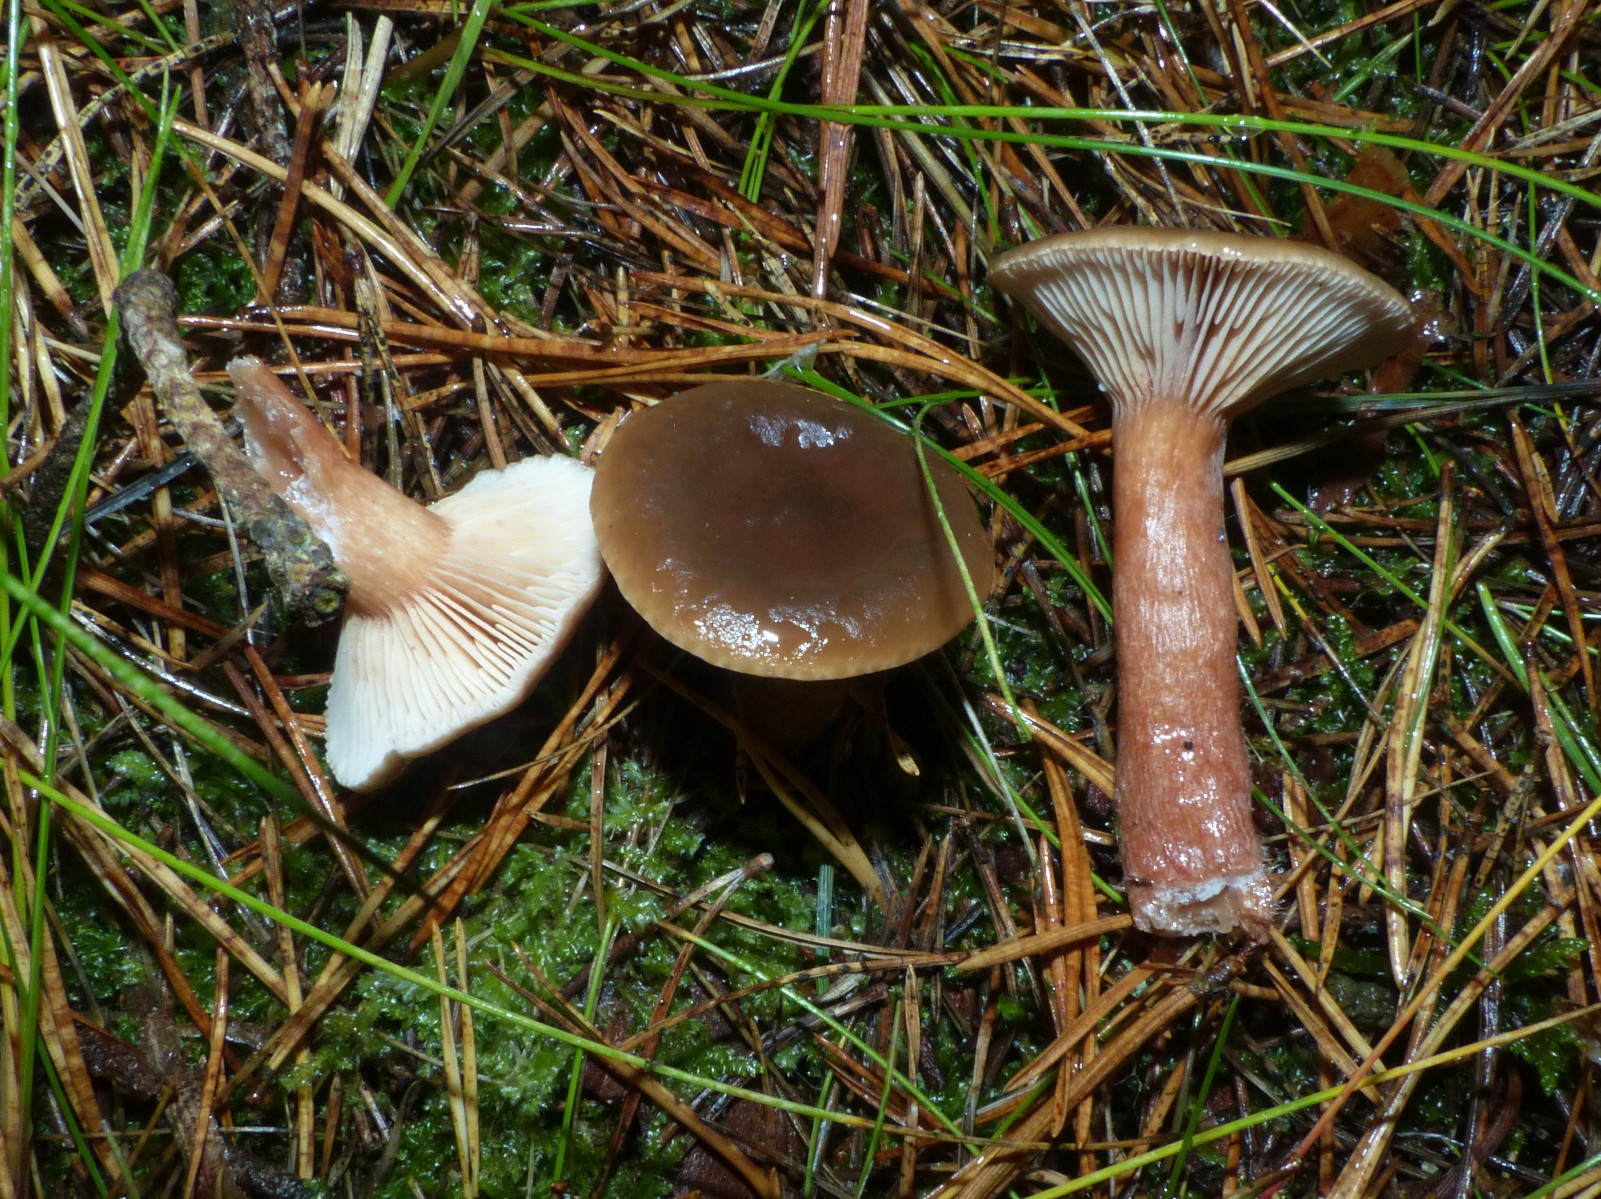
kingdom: Fungi
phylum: Basidiomycota
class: Agaricomycetes
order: Russulales
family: Russulaceae
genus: Lactarius
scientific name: Lactarius hepaticus
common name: leverbrun mælkehat
